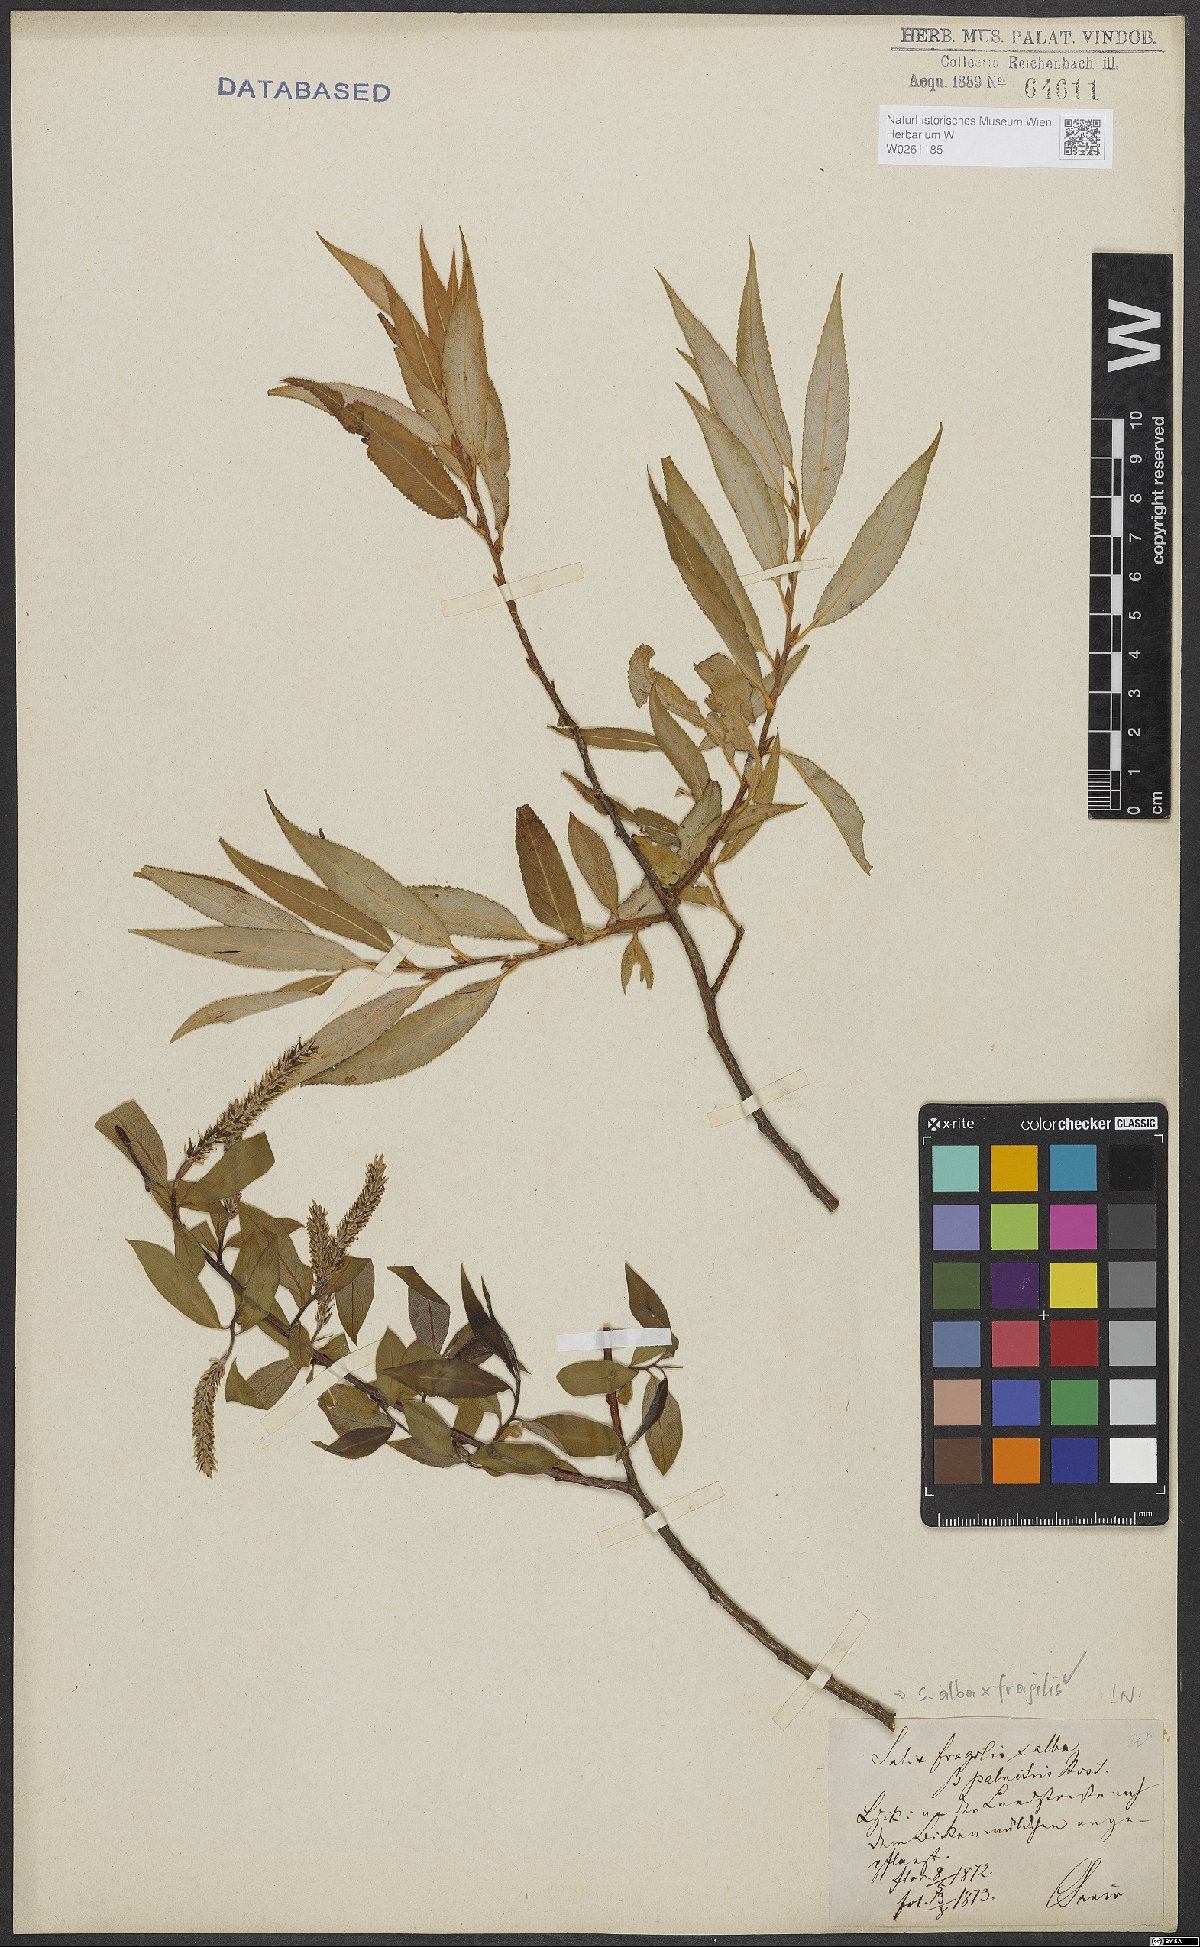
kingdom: Plantae
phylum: Tracheophyta
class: Magnoliopsida
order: Malpighiales
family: Salicaceae
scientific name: Salicaceae
